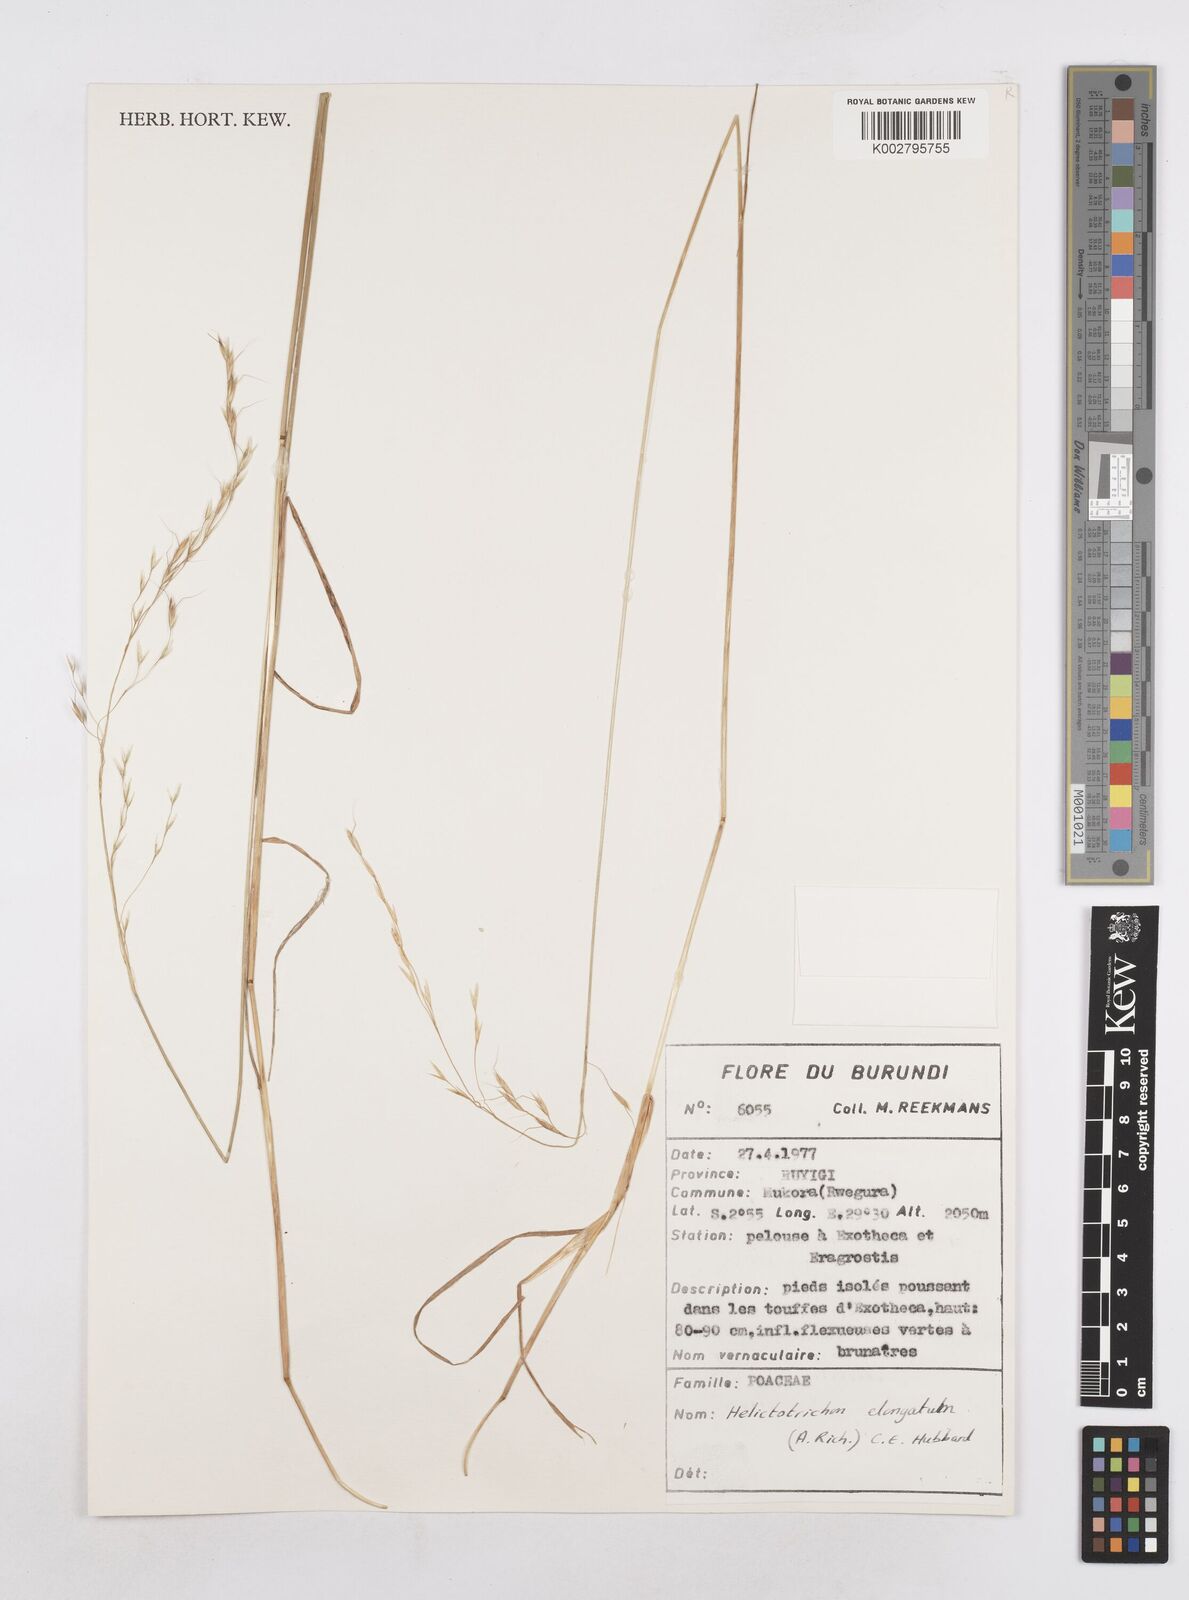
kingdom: Plantae
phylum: Tracheophyta
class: Liliopsida
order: Poales
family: Poaceae
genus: Trisetopsis
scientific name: Trisetopsis elongata
